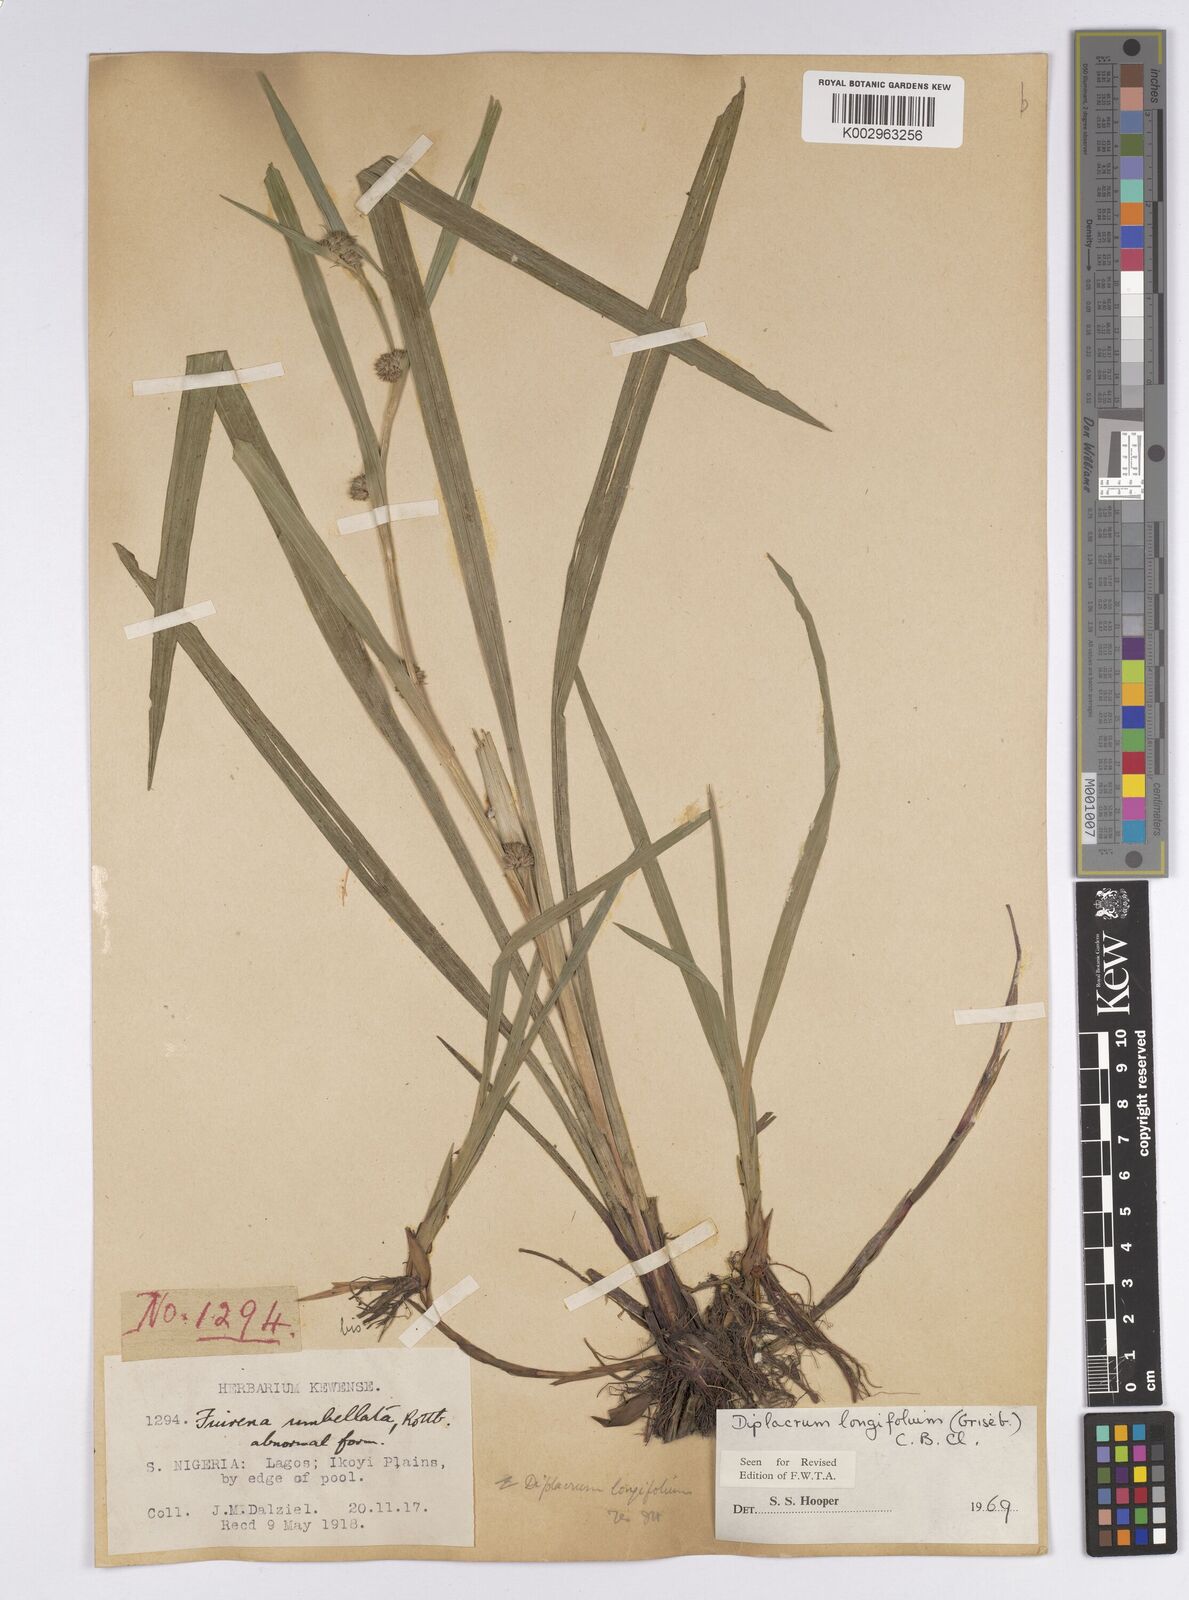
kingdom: Plantae
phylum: Tracheophyta
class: Liliopsida
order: Poales
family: Cyperaceae
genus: Diplacrum
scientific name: Diplacrum capitatum
